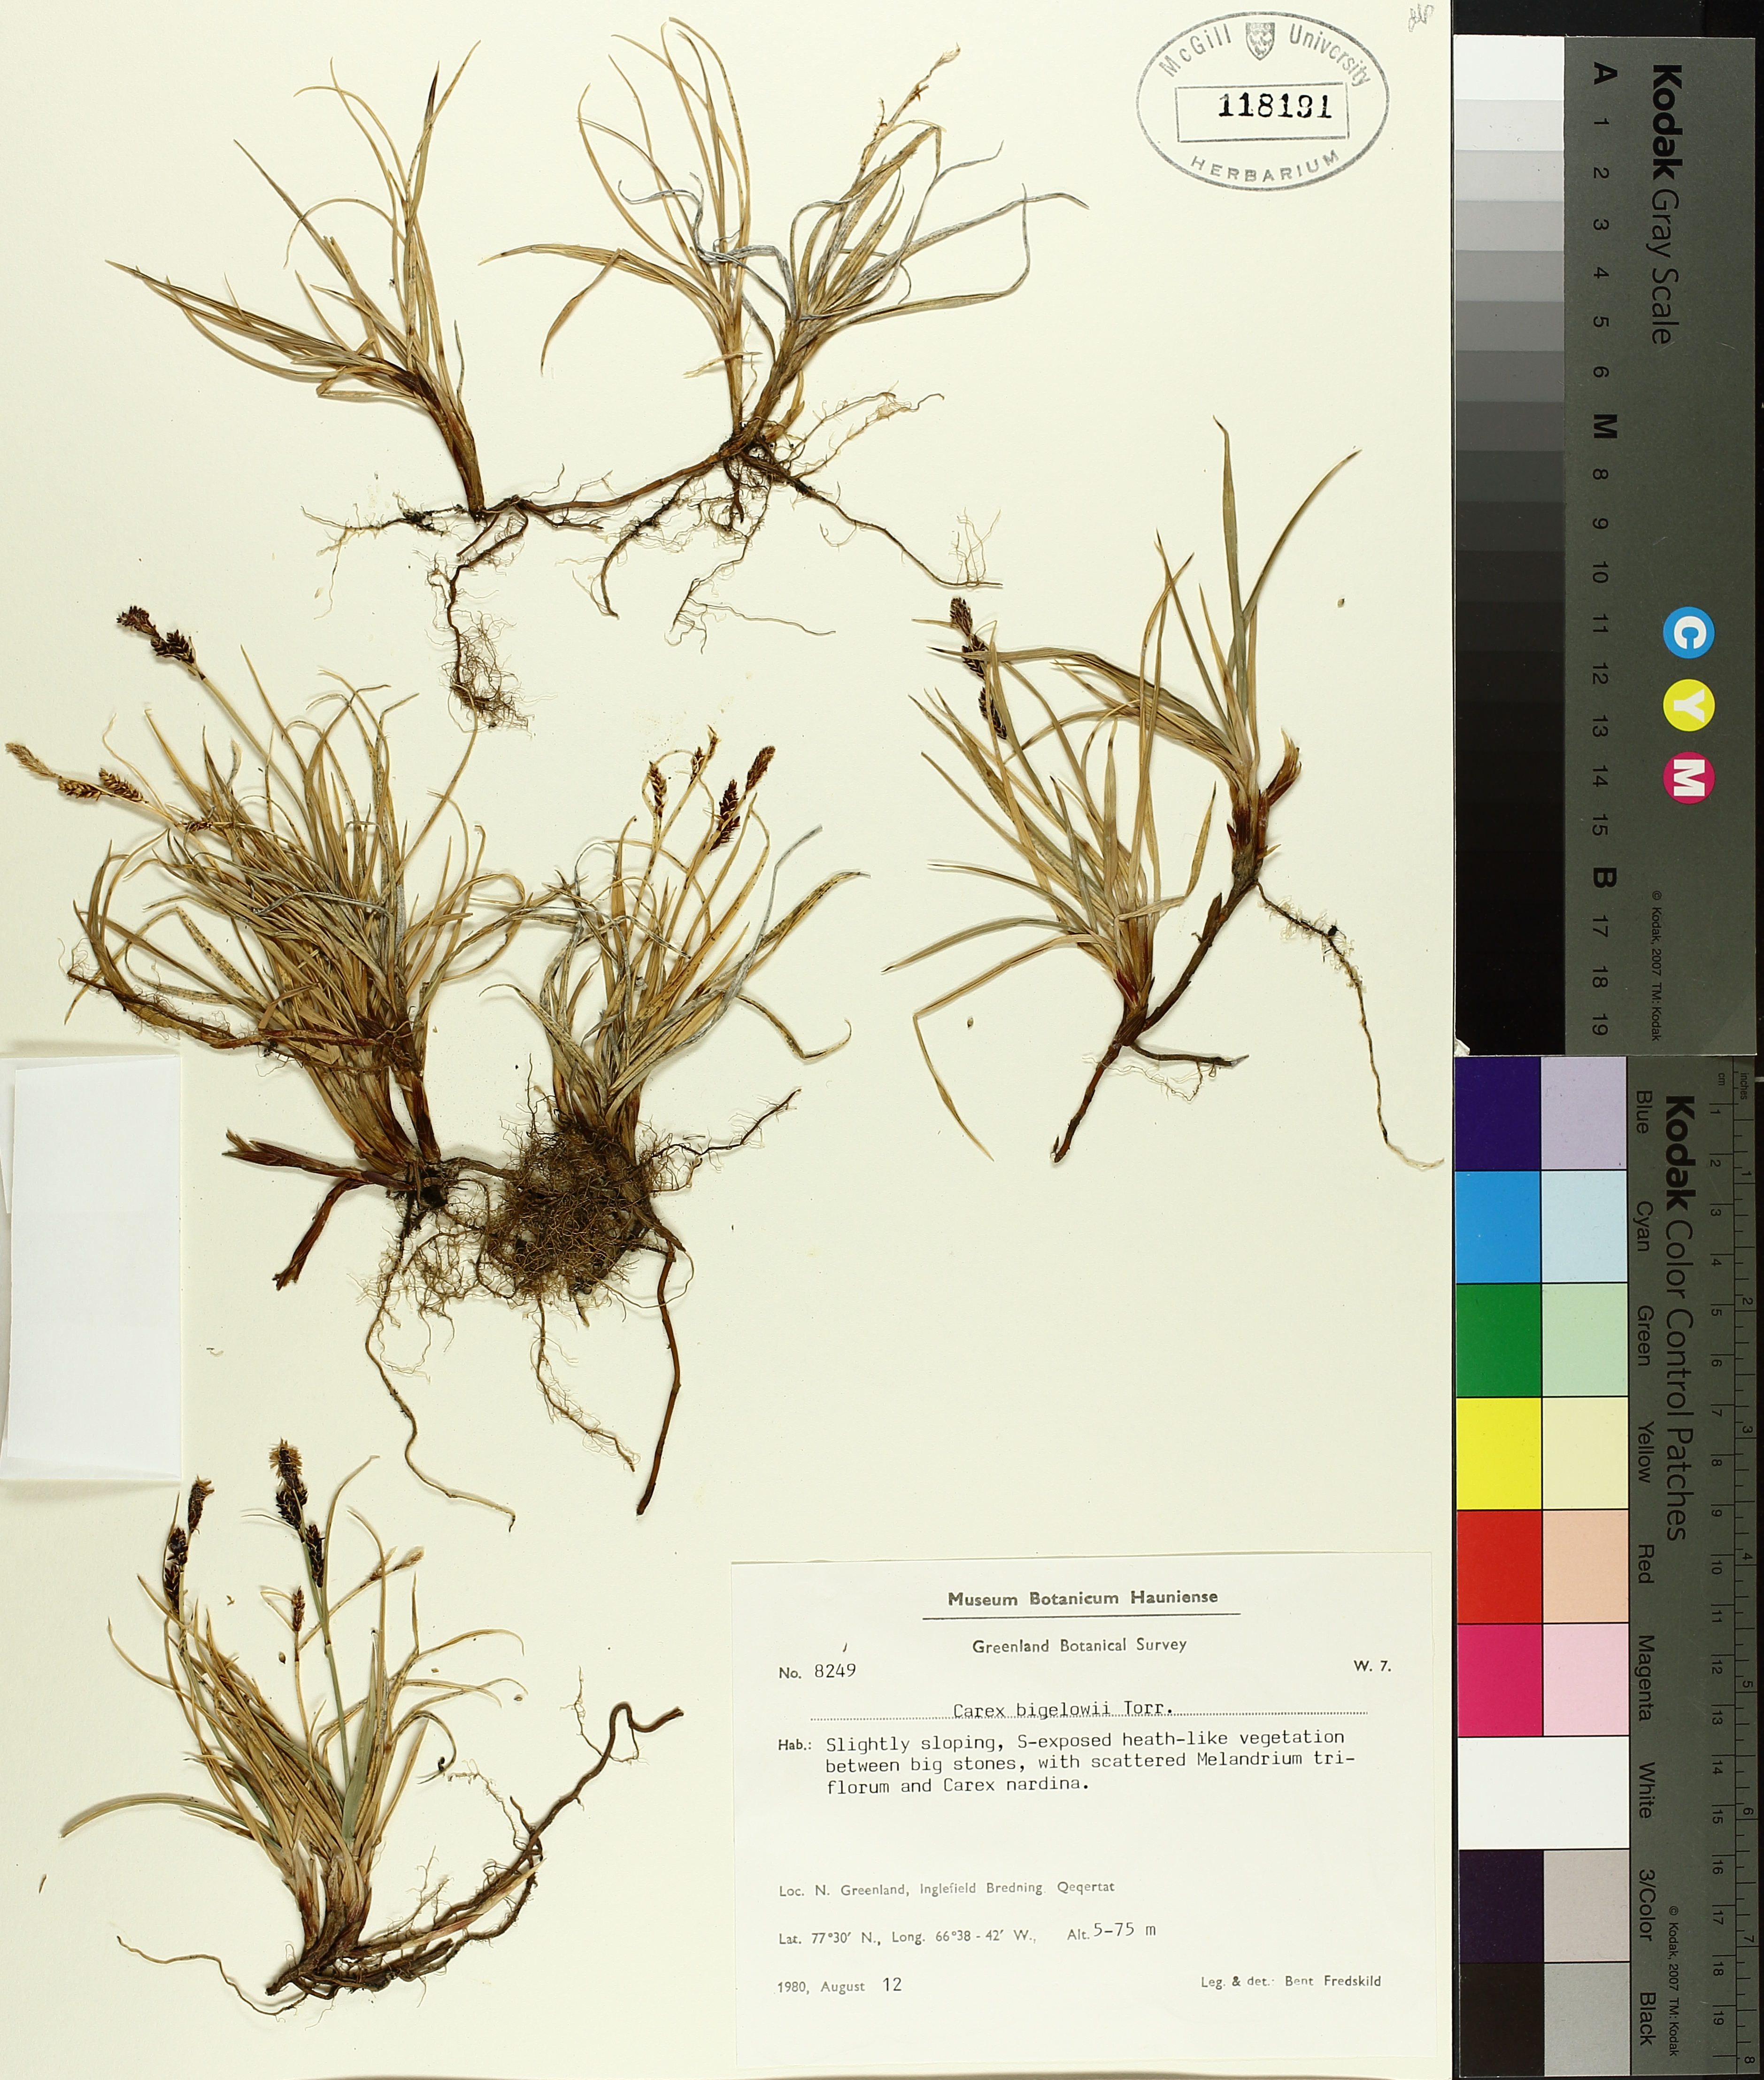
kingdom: Plantae
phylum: Tracheophyta
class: Liliopsida
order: Poales
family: Cyperaceae
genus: Carex
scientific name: Carex bigelowii
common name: Stiff sedge
